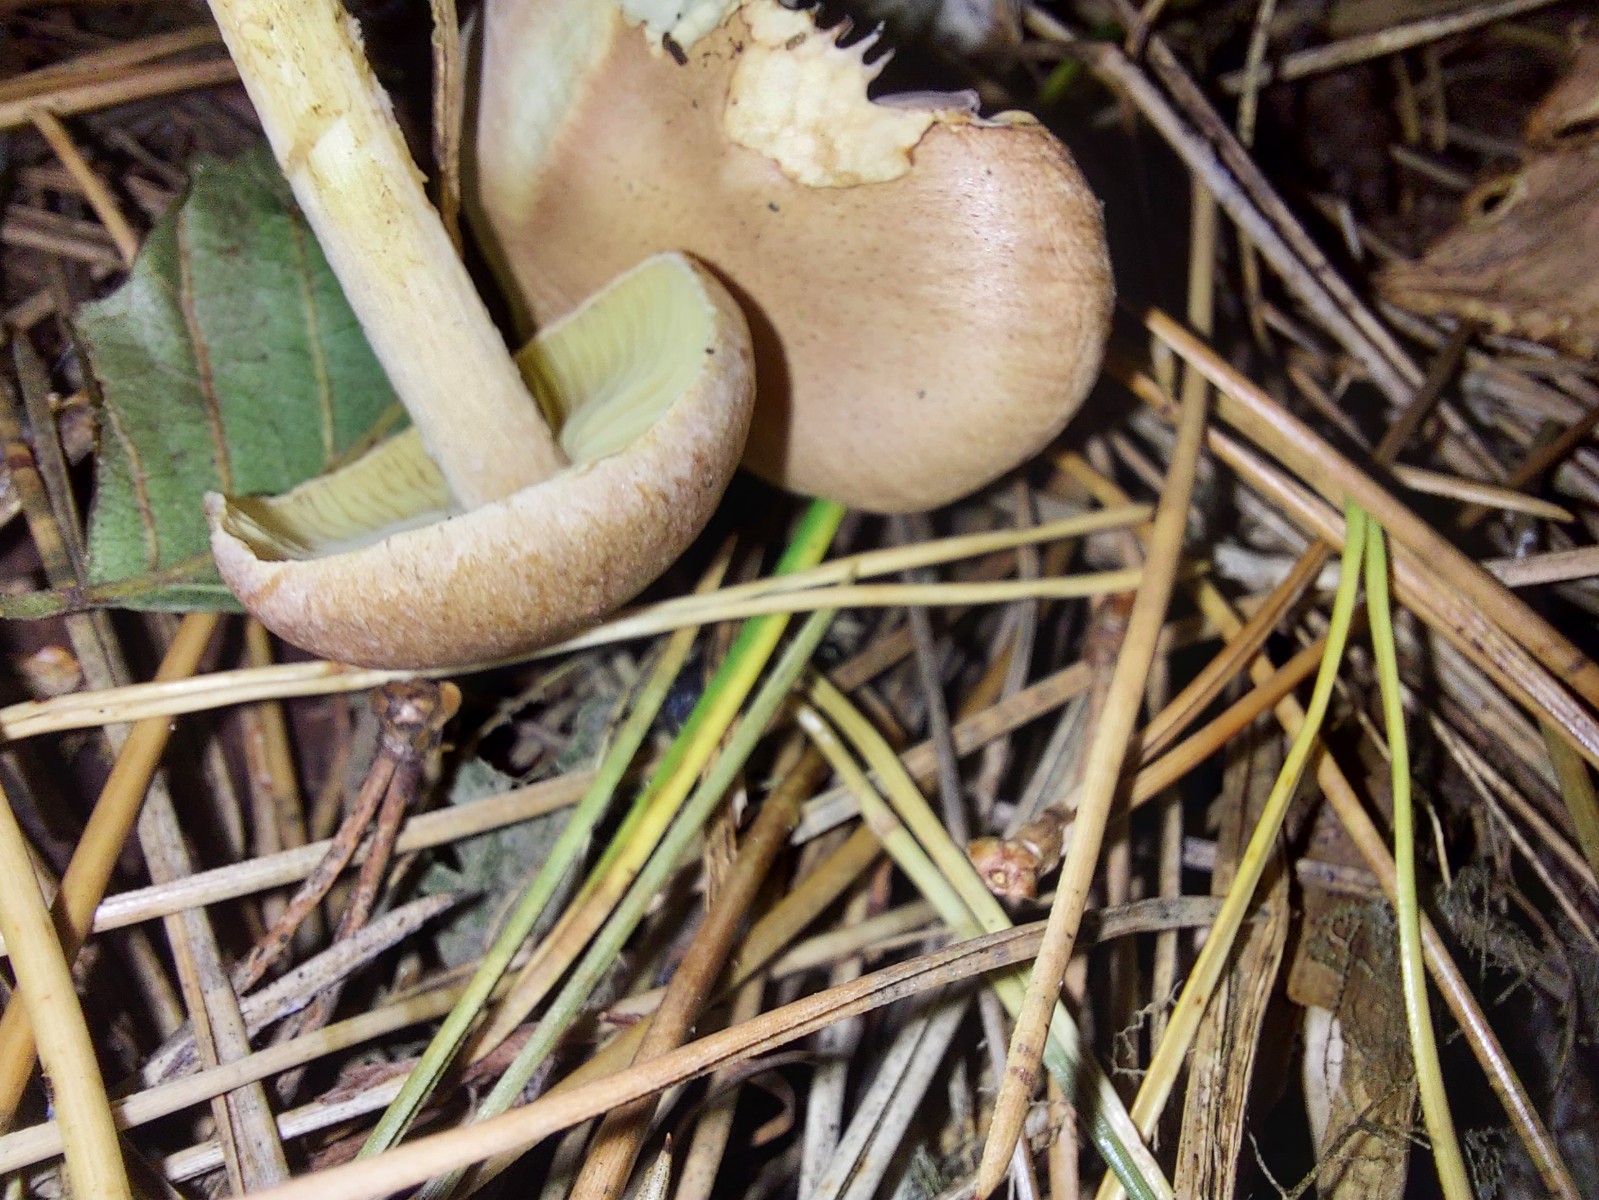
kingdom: Fungi
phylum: Basidiomycota
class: Agaricomycetes
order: Agaricales
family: Omphalotaceae
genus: Collybiopsis
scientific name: Collybiopsis peronata
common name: bestøvlet fladhat
